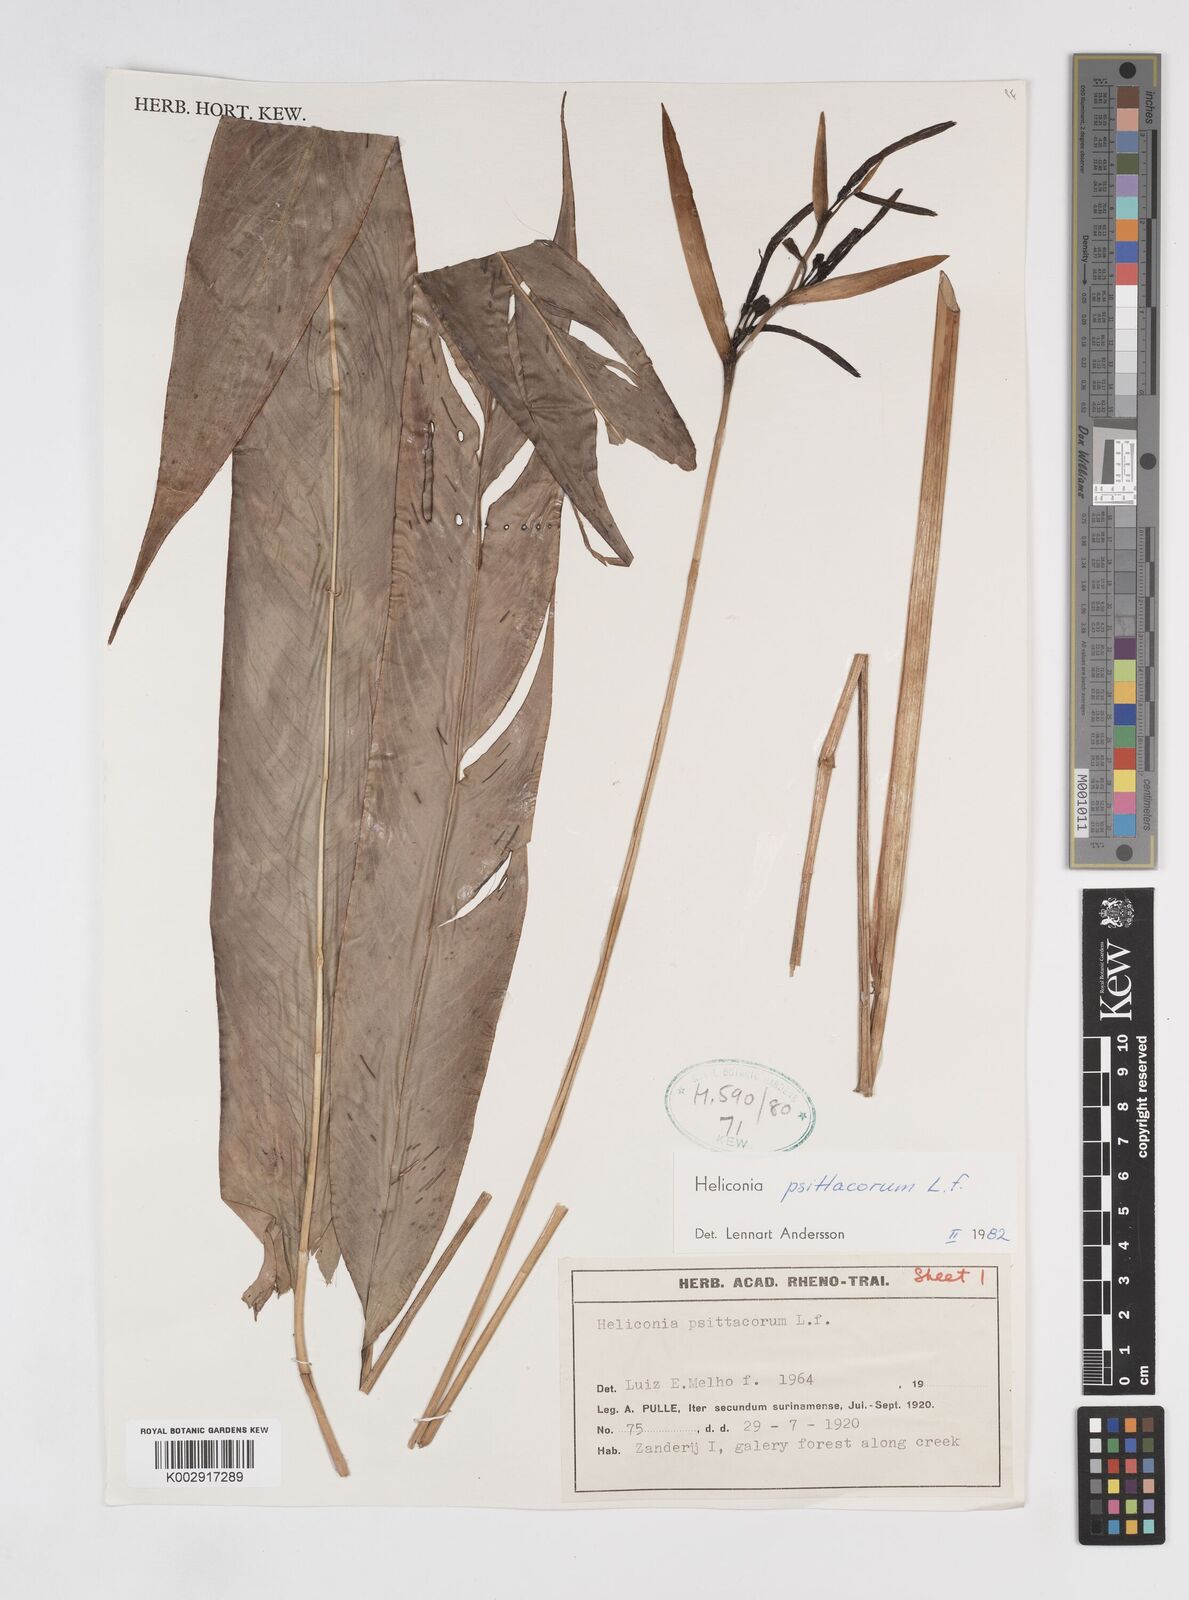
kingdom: Plantae
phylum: Tracheophyta
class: Liliopsida
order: Zingiberales
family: Heliconiaceae
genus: Heliconia
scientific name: Heliconia psittacorum
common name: Parrot's-flower
